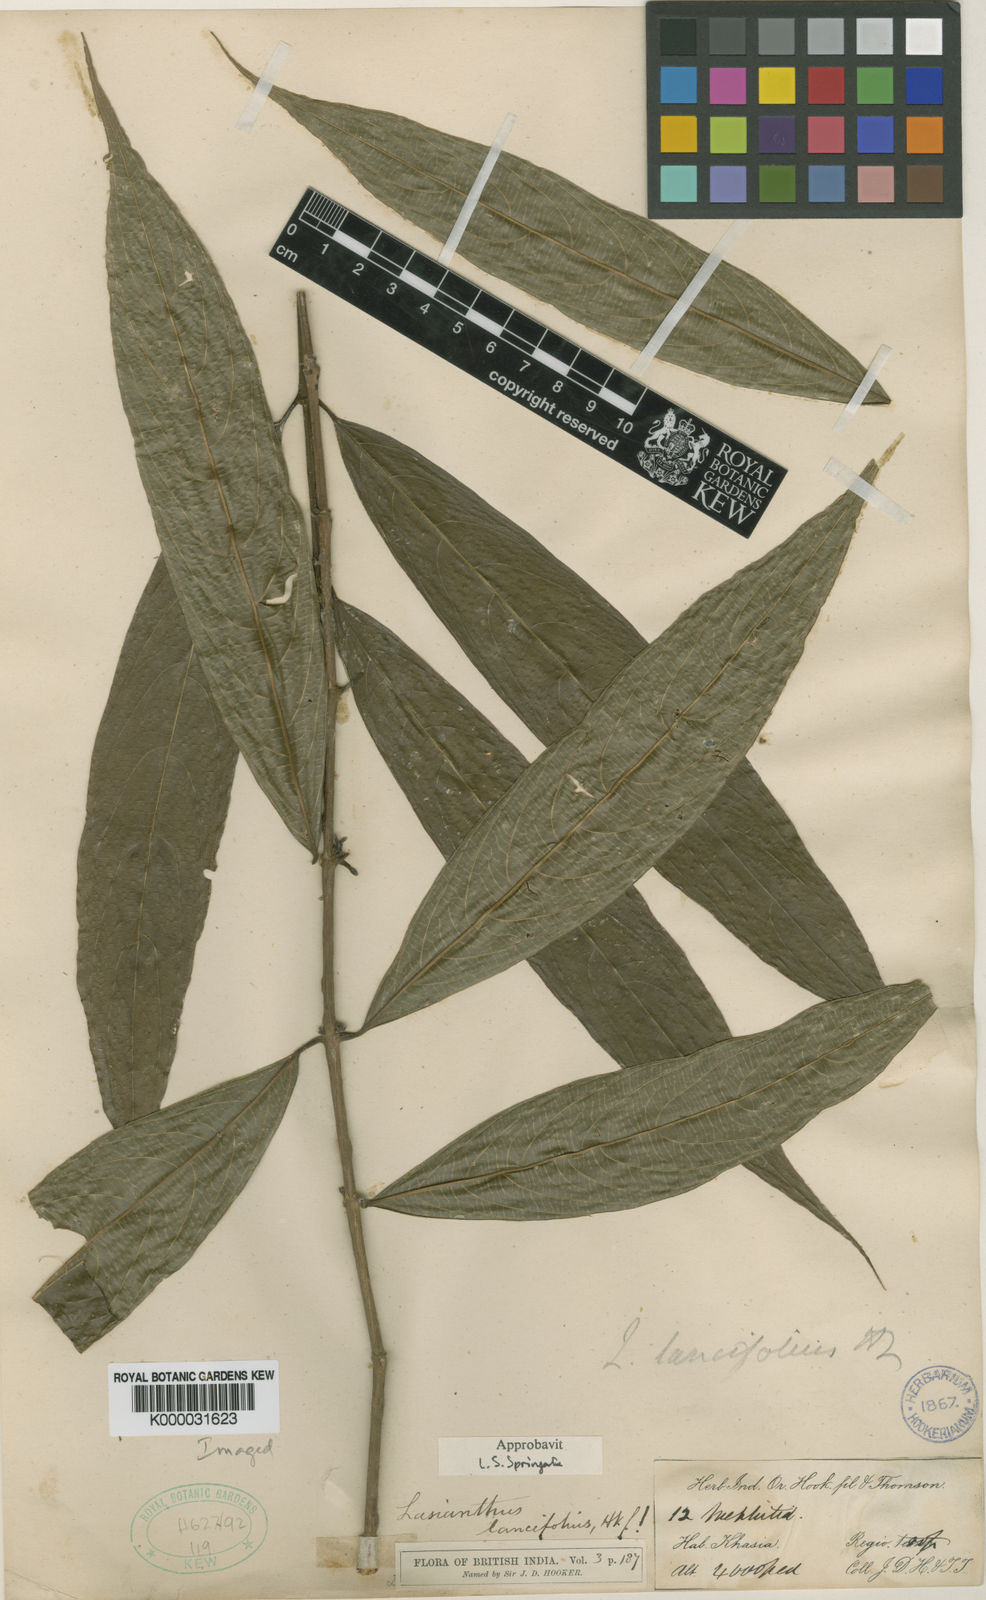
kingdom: Plantae
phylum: Tracheophyta
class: Magnoliopsida
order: Gentianales
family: Rubiaceae
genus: Lasianthus
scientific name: Lasianthus lancifolius
